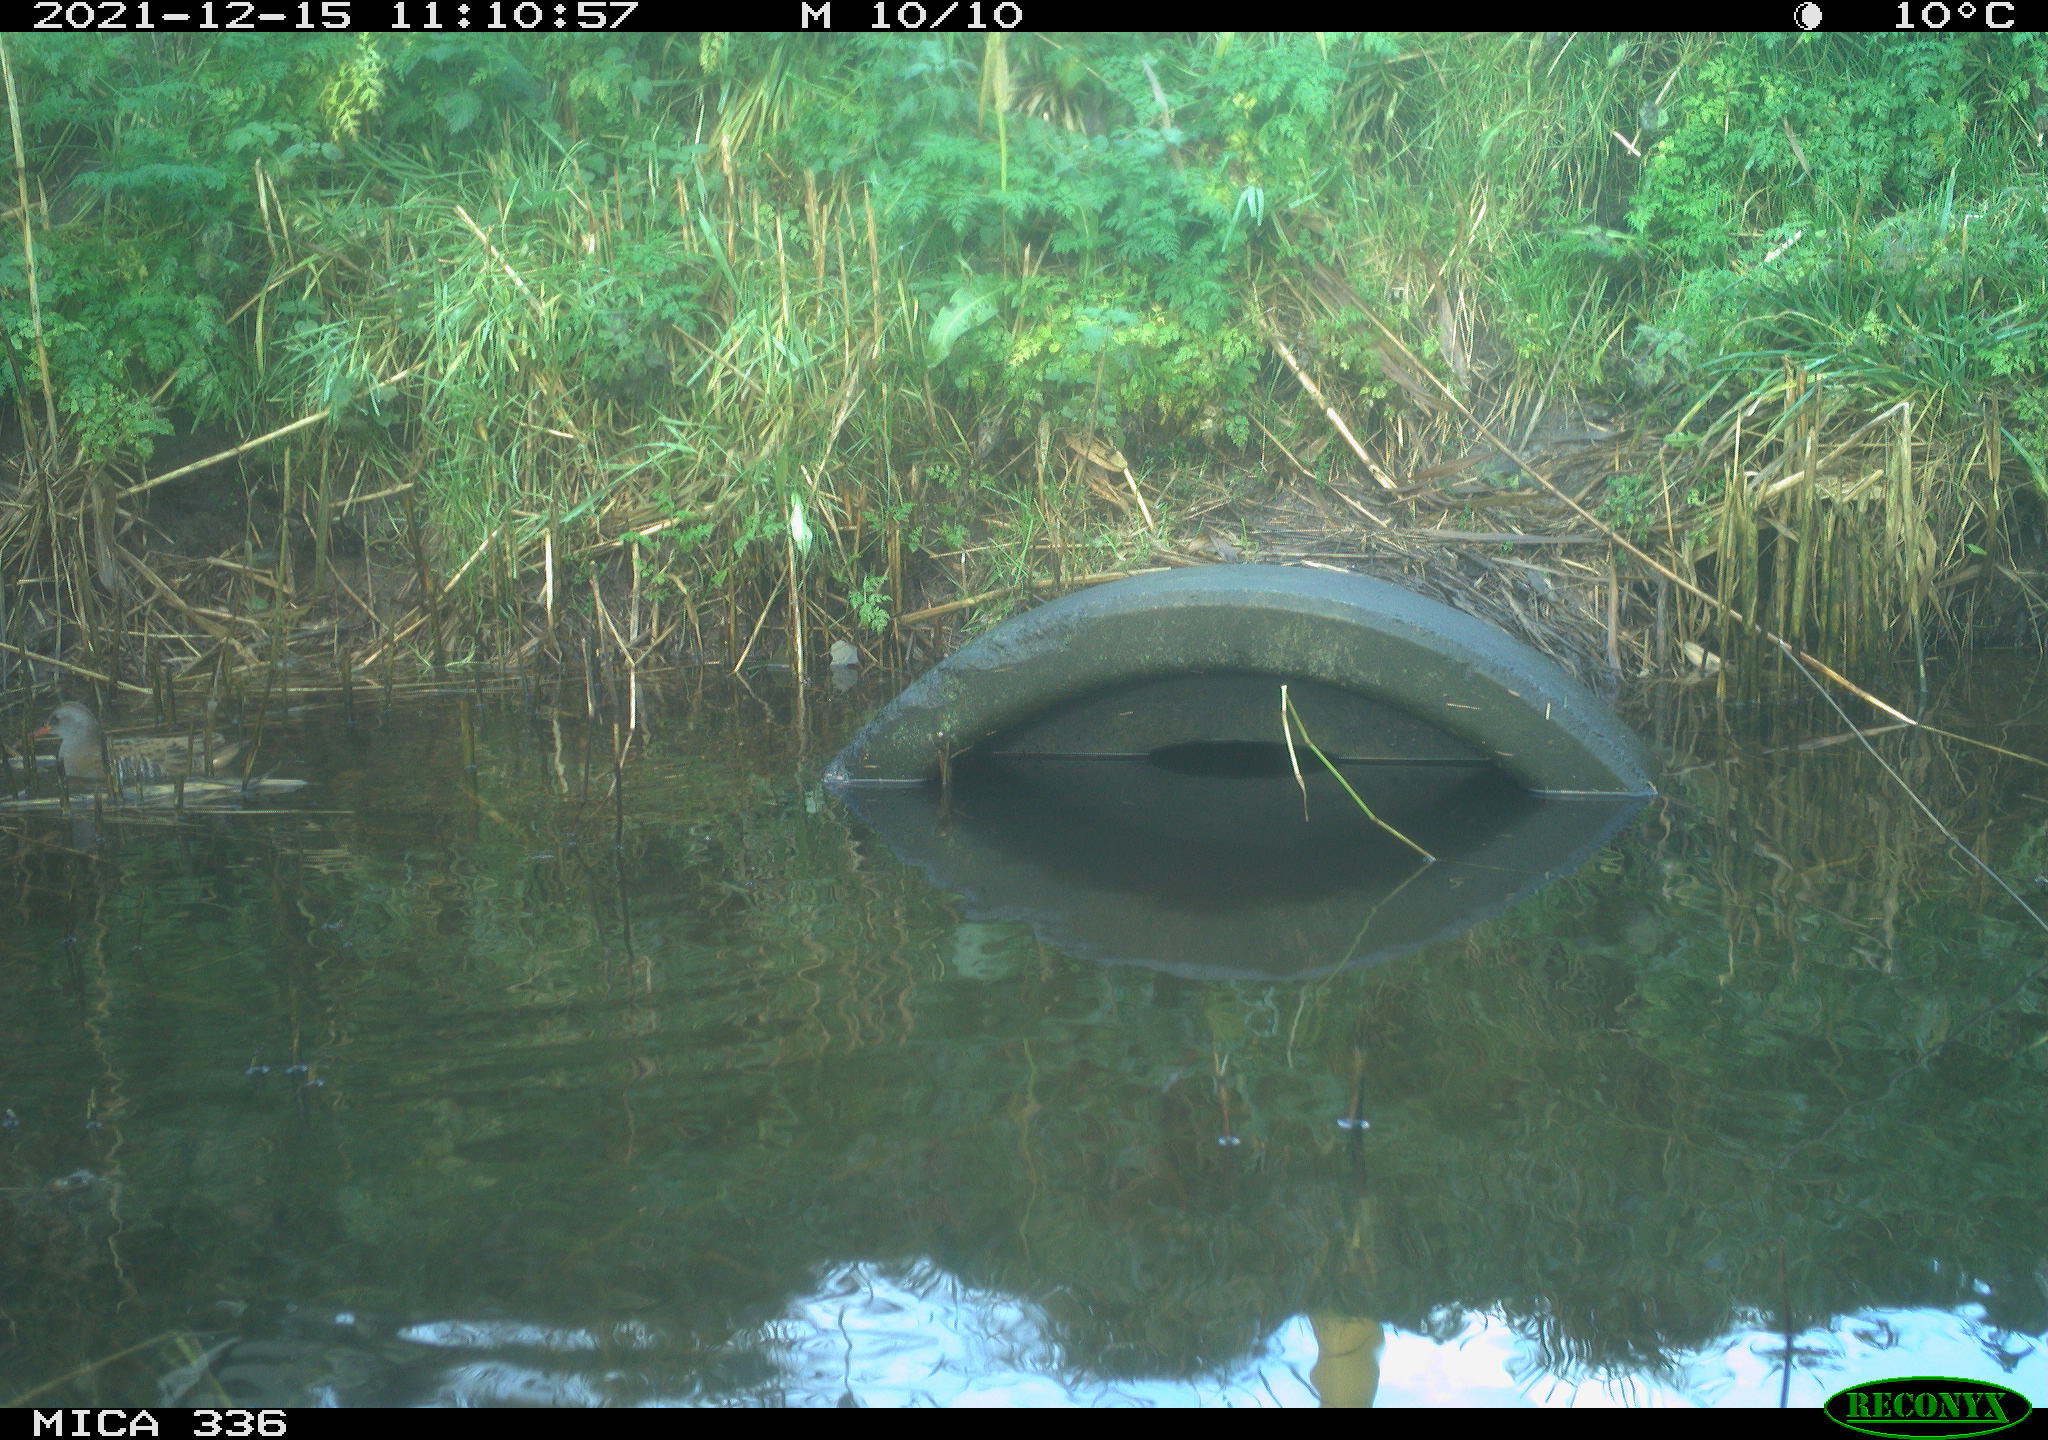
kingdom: Animalia
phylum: Chordata
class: Aves
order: Gruiformes
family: Rallidae
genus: Gallinula
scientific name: Gallinula chloropus
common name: Common moorhen
